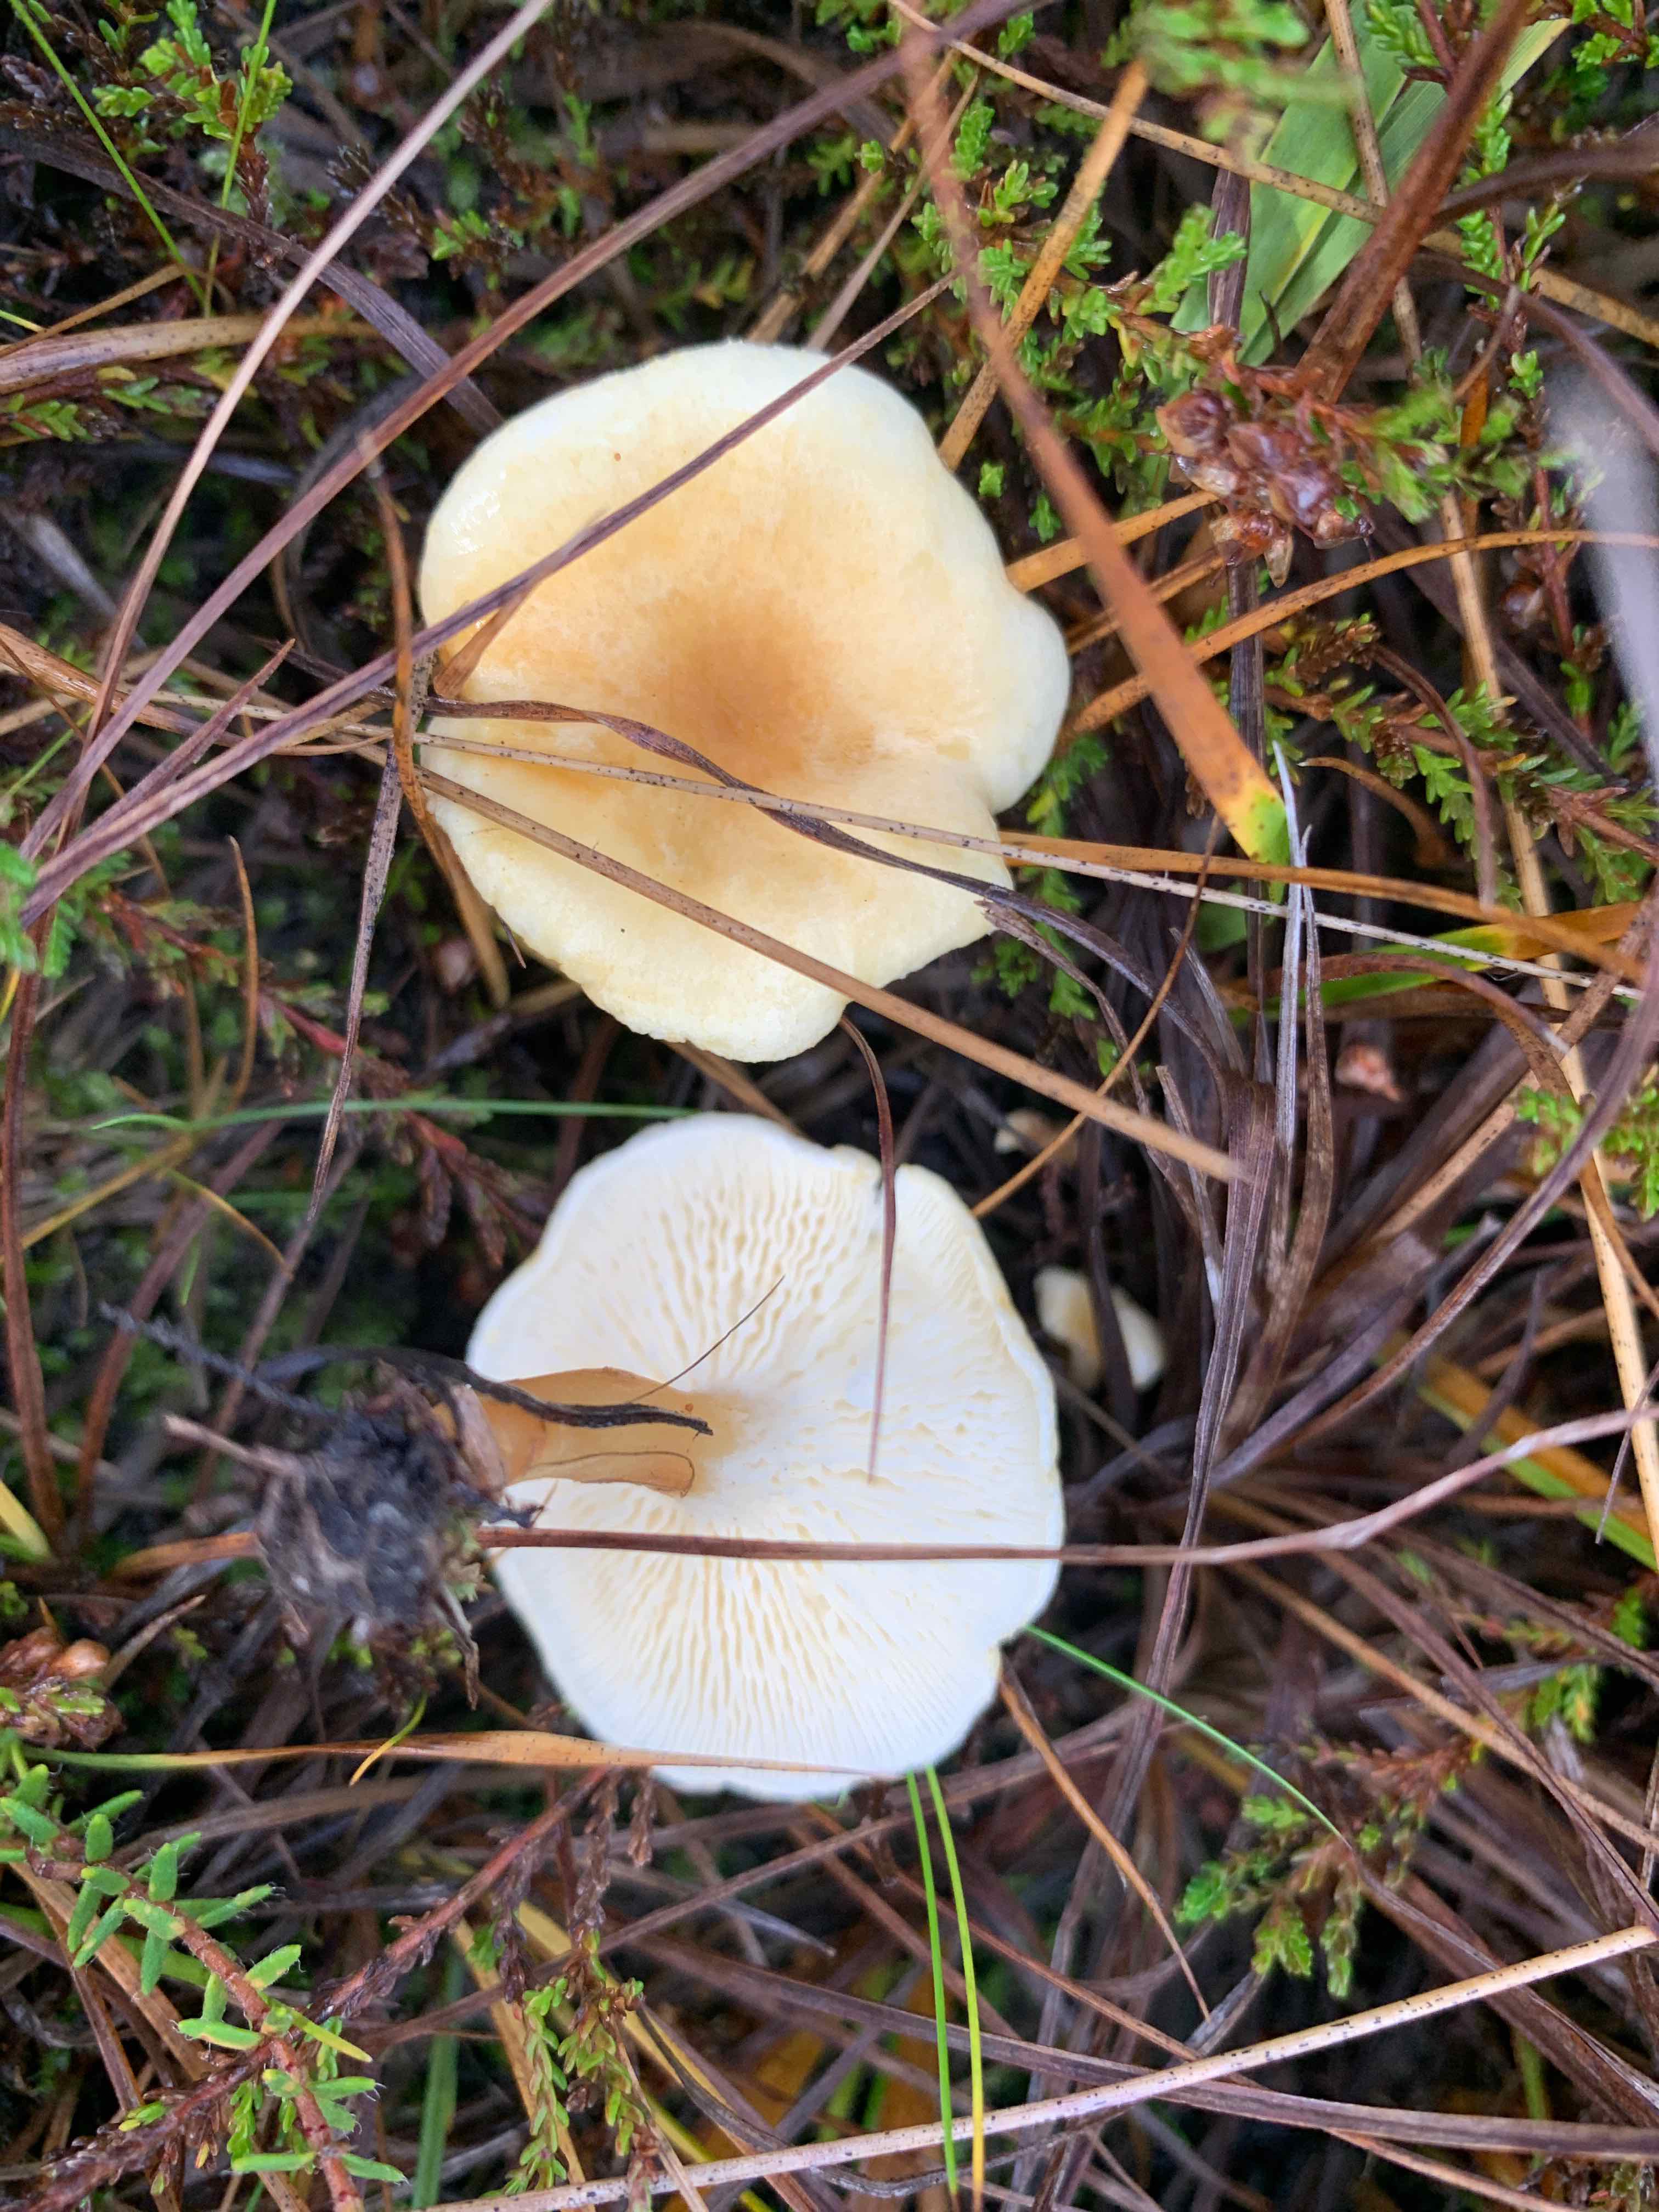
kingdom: Fungi
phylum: Basidiomycota
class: Agaricomycetes
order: Boletales
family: Hygrophoropsidaceae
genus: Hygrophoropsis
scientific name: Hygrophoropsis pallida
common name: bleg orangekantarel
